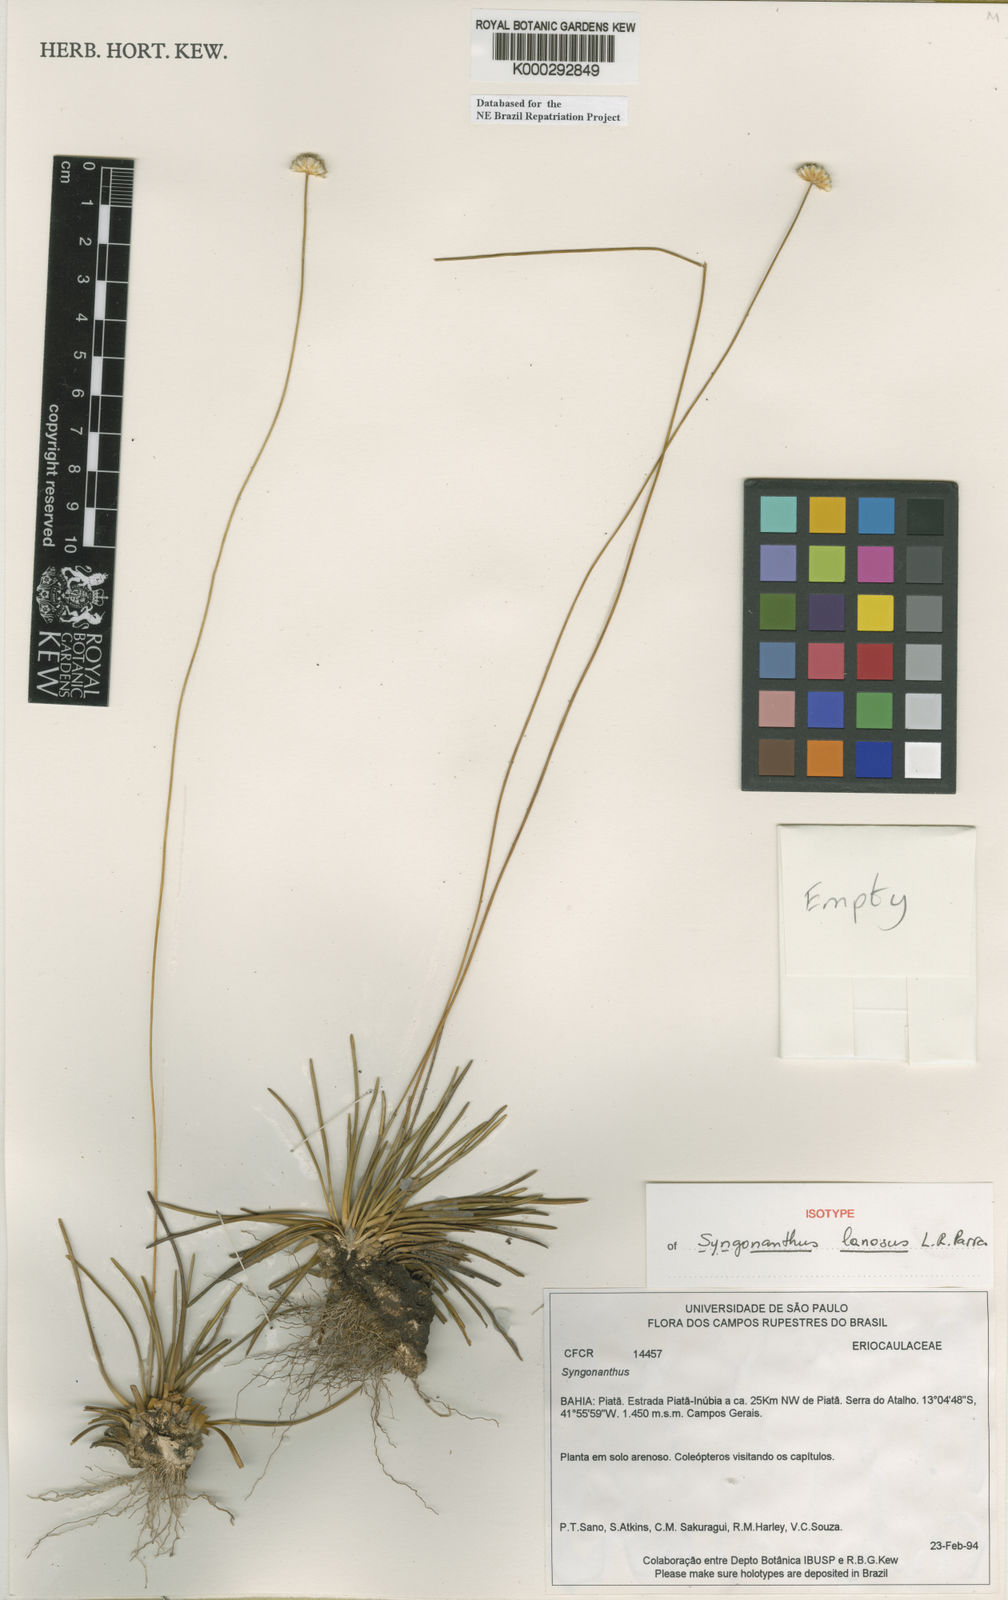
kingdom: Plantae
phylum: Tracheophyta
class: Liliopsida
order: Poales
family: Eriocaulaceae
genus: Syngonanthus
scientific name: Syngonanthus
